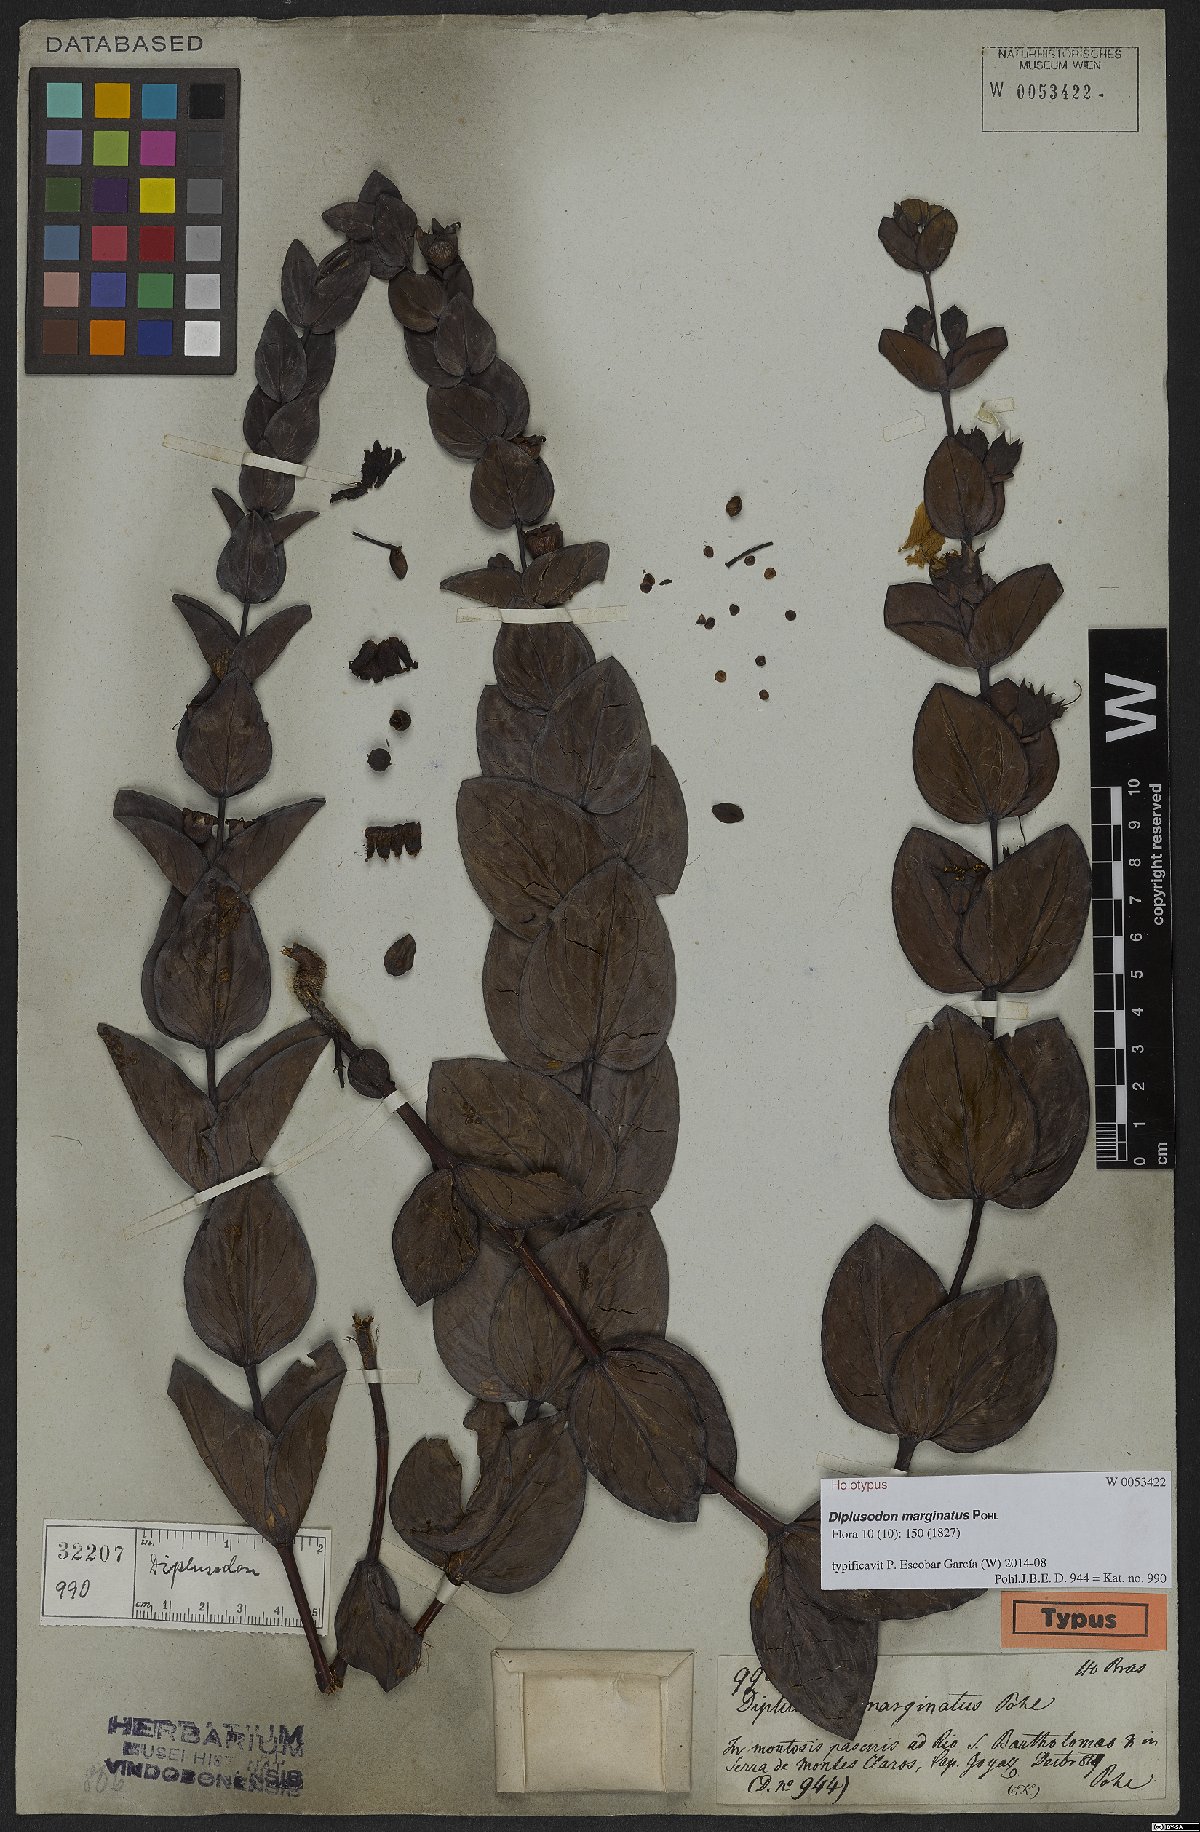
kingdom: Plantae
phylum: Tracheophyta
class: Magnoliopsida
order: Myrtales
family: Lythraceae
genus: Diplusodon
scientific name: Diplusodon marginatus
